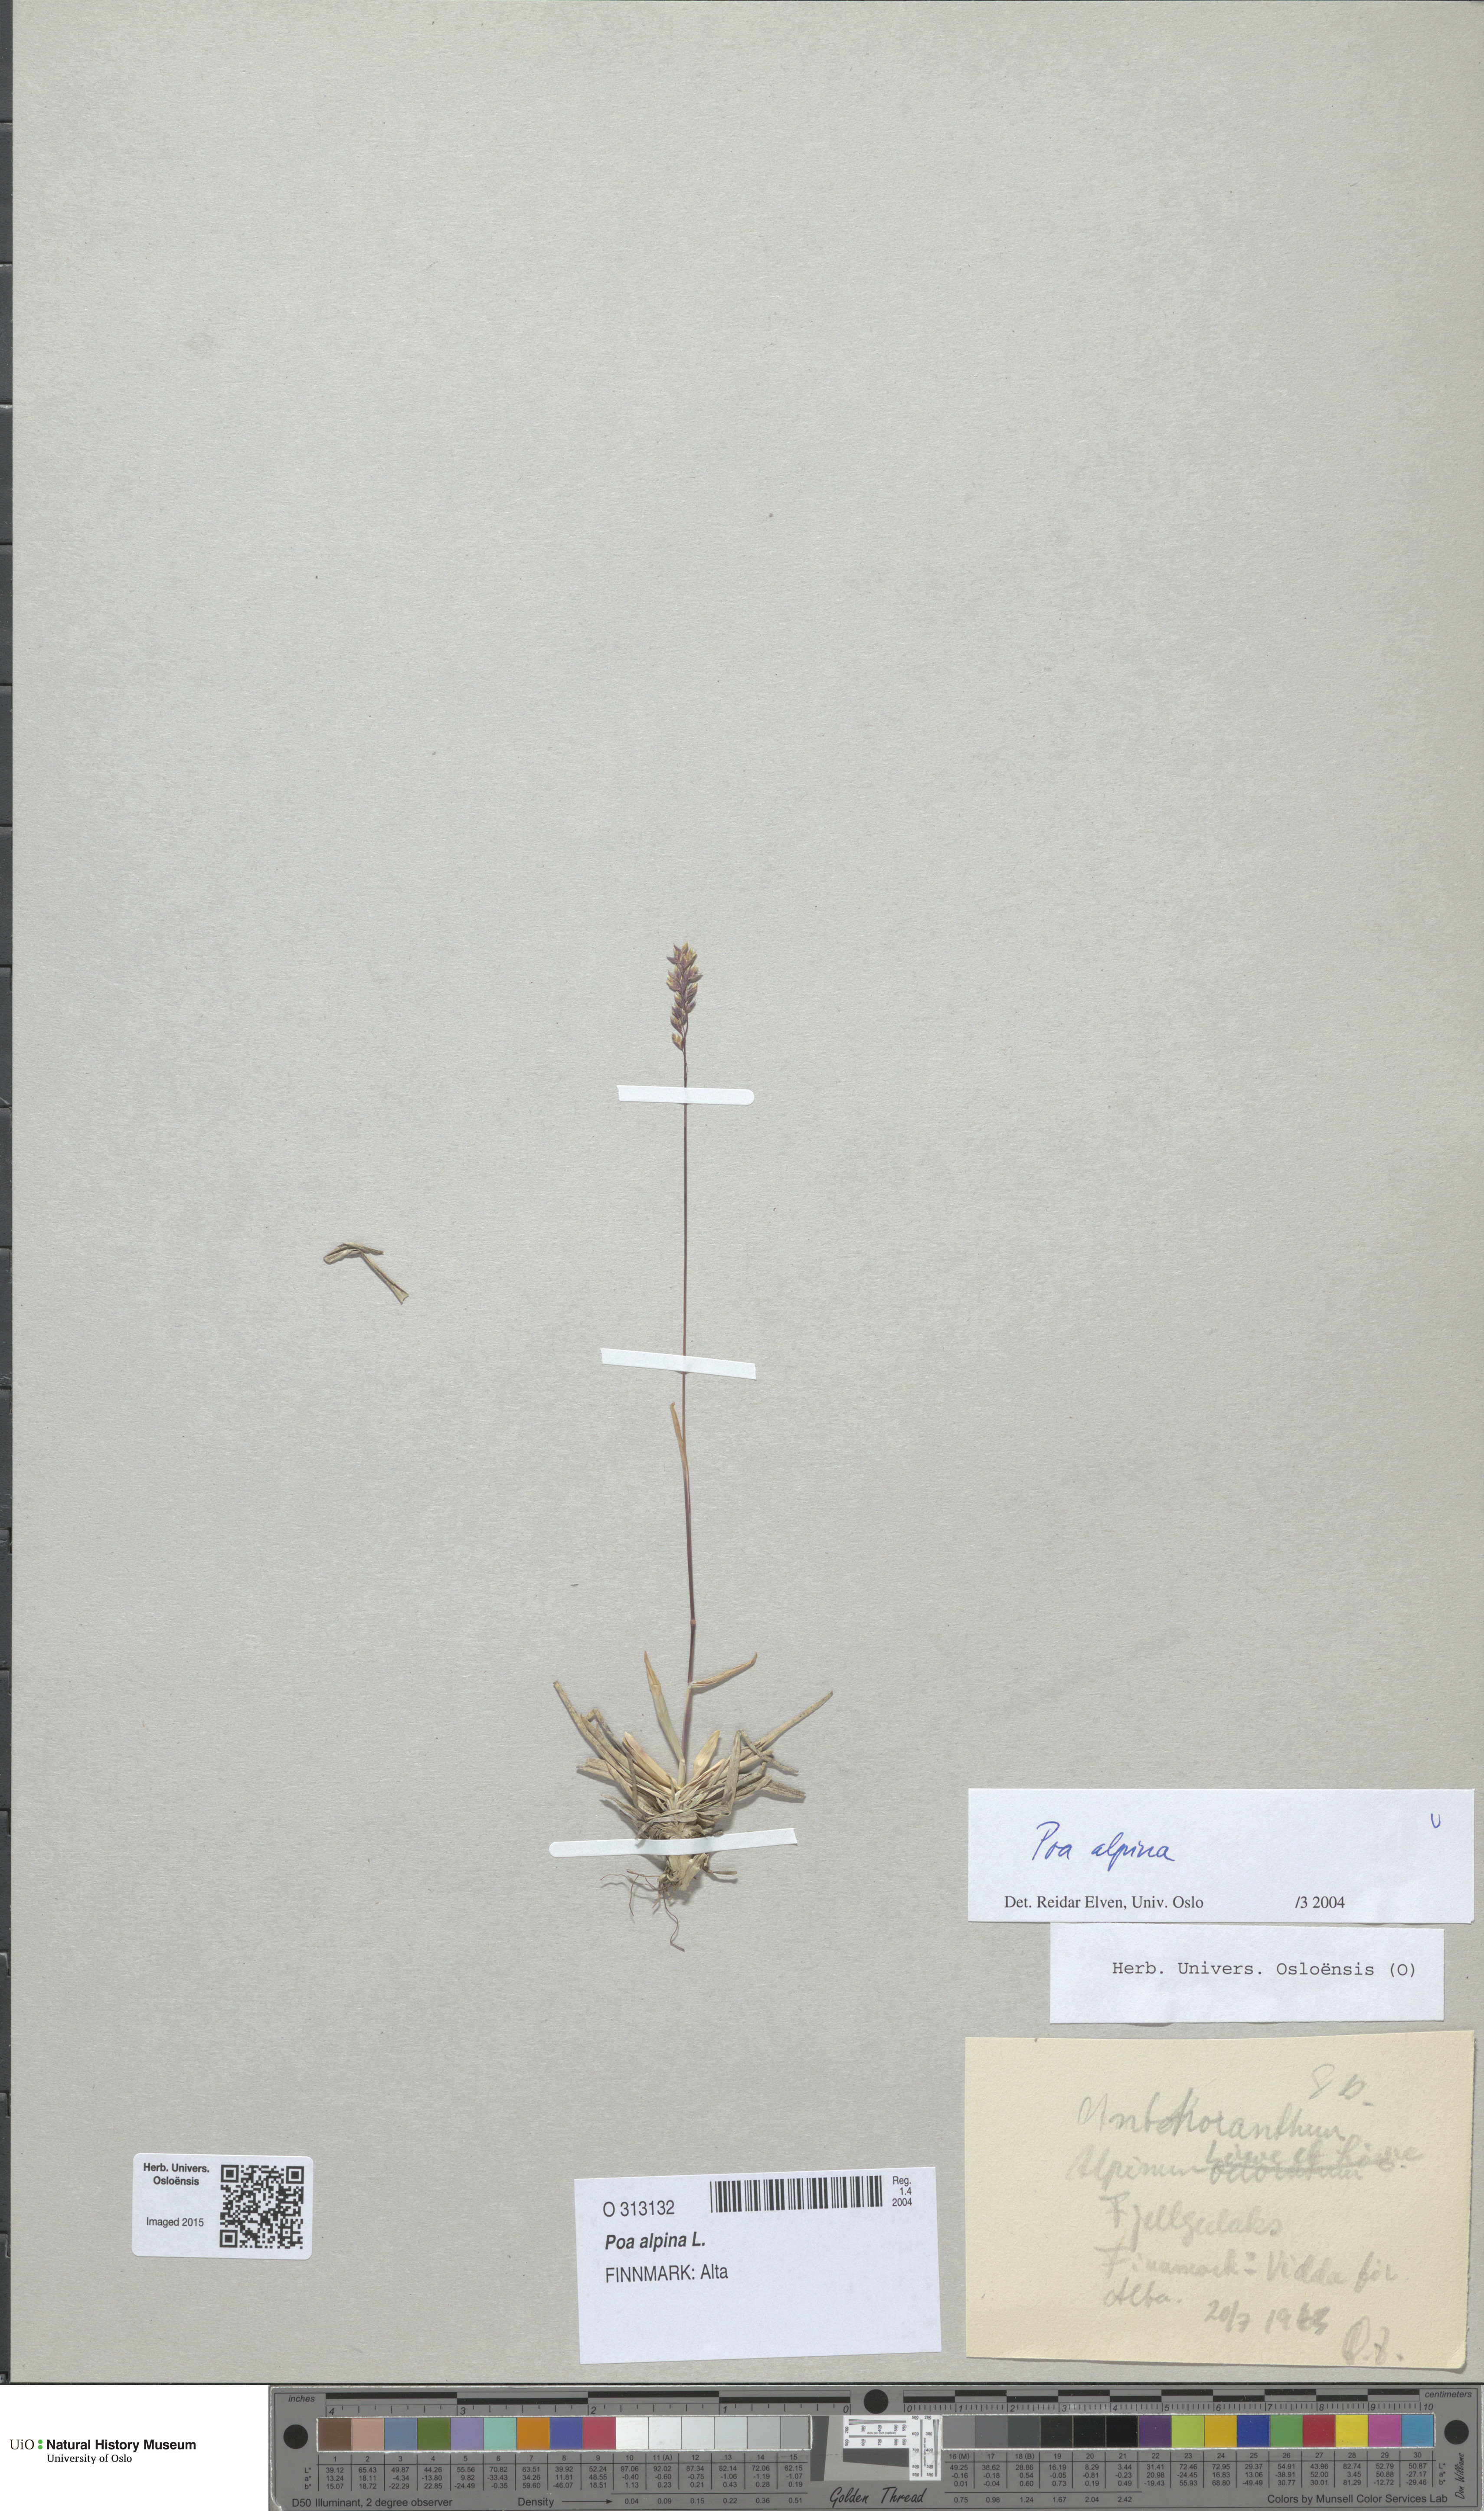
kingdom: Plantae
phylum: Tracheophyta
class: Liliopsida
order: Poales
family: Poaceae
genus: Poa
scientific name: Poa alpina
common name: Alpine bluegrass
